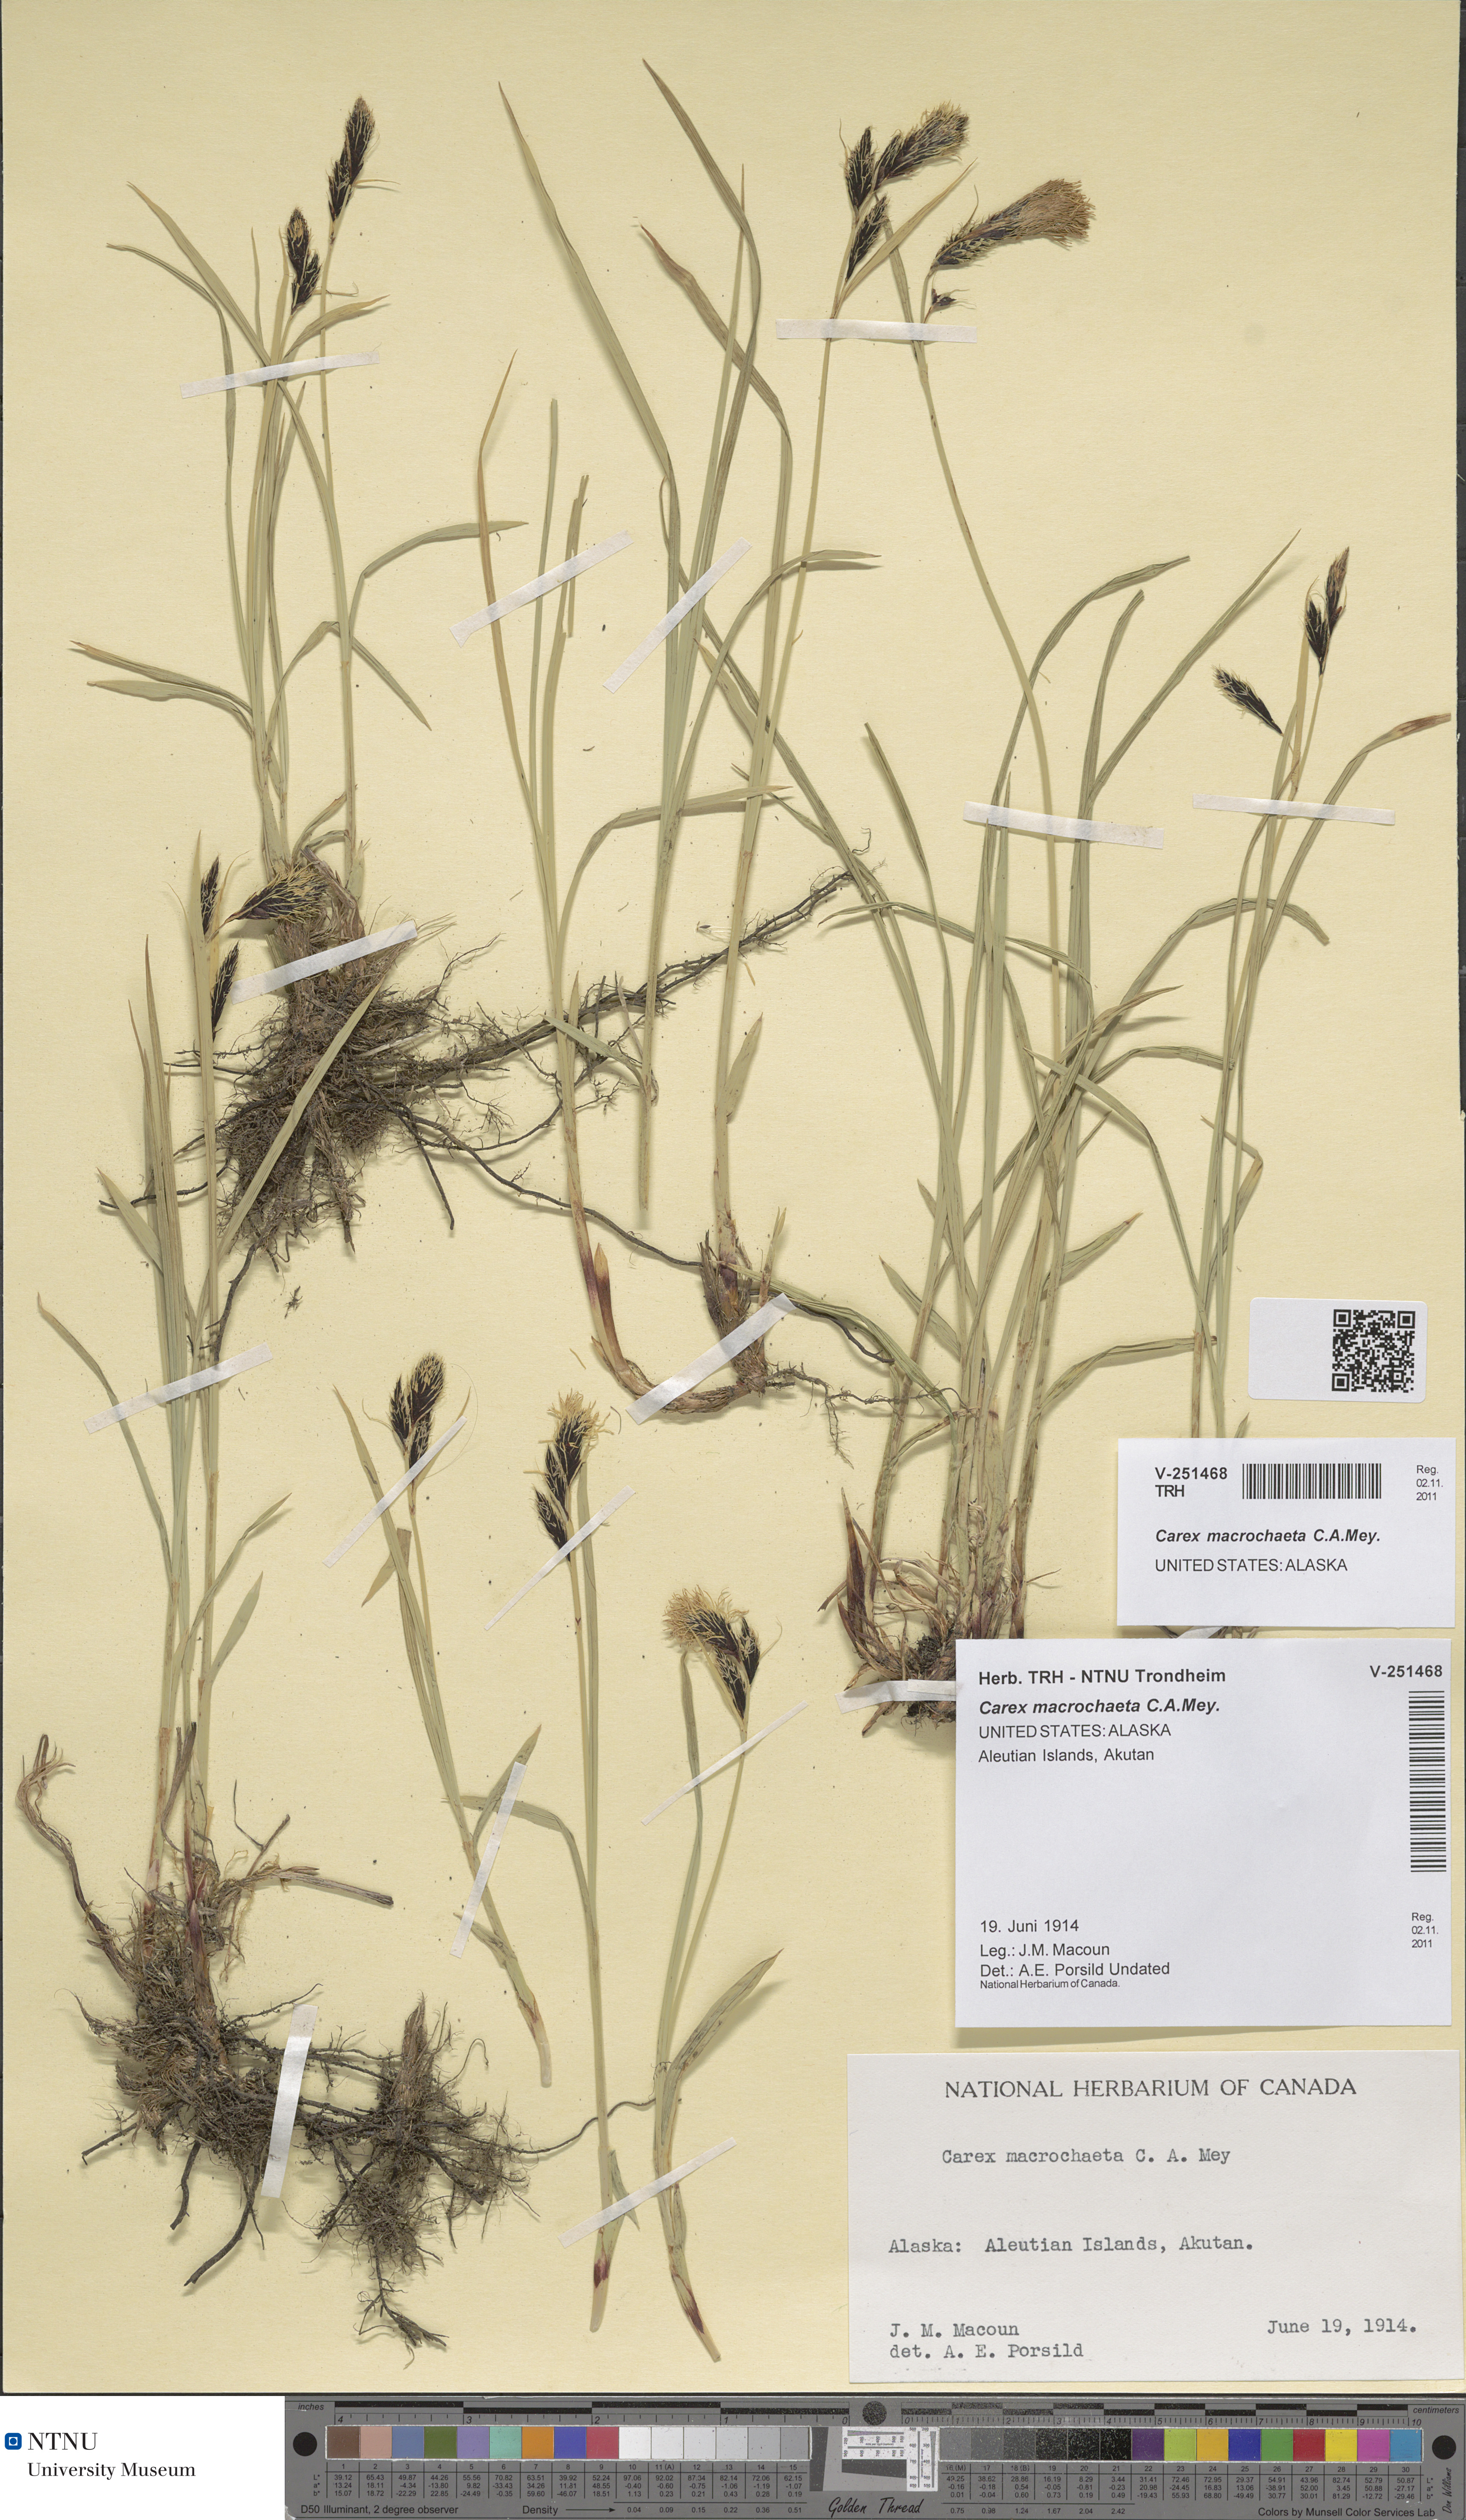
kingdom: Plantae
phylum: Tracheophyta
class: Liliopsida
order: Poales
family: Cyperaceae
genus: Carex
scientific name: Carex macrochaeta
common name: Alaska large awn sedge
